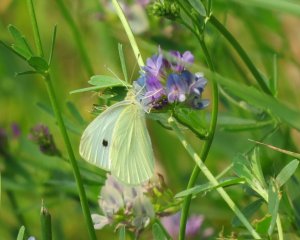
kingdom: Animalia
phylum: Arthropoda
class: Insecta
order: Lepidoptera
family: Pieridae
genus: Pieris
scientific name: Pieris rapae
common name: Cabbage White
